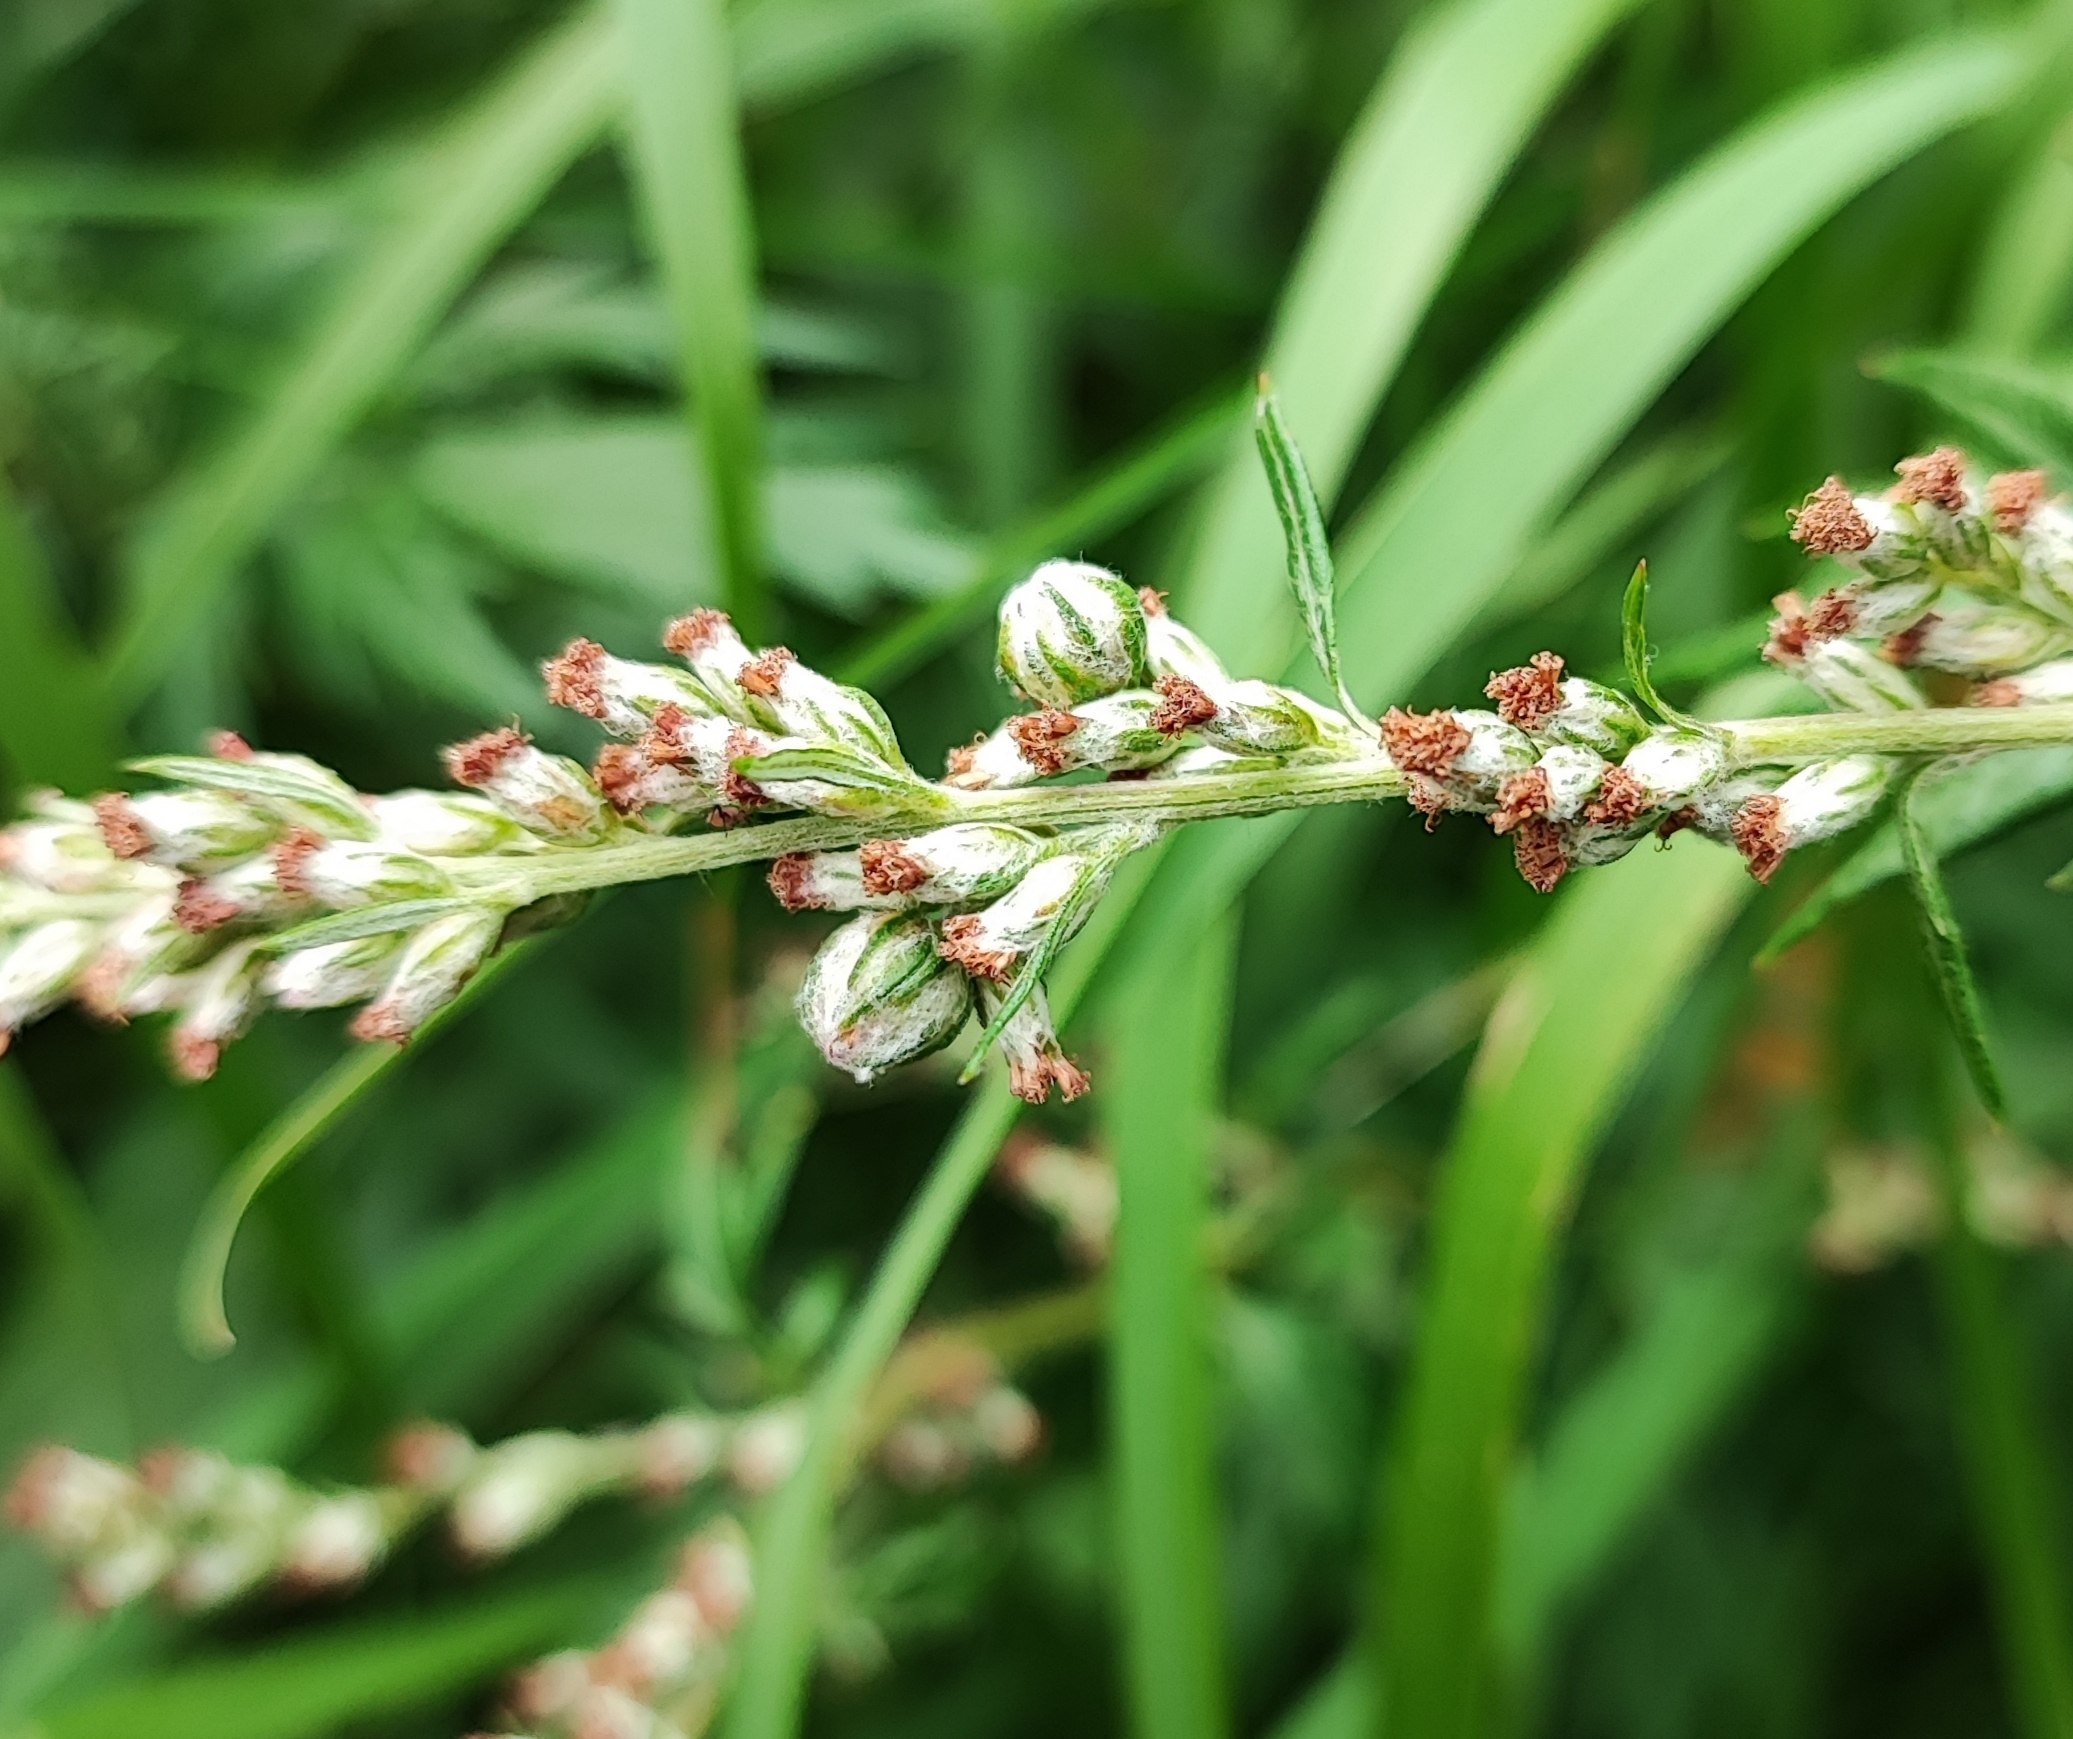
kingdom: Animalia
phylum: Arthropoda
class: Insecta
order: Diptera
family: Cecidomyiidae
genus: Ametrodiplosis
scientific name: Ametrodiplosis rudimentalis
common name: Bynkekurvgalmyg
